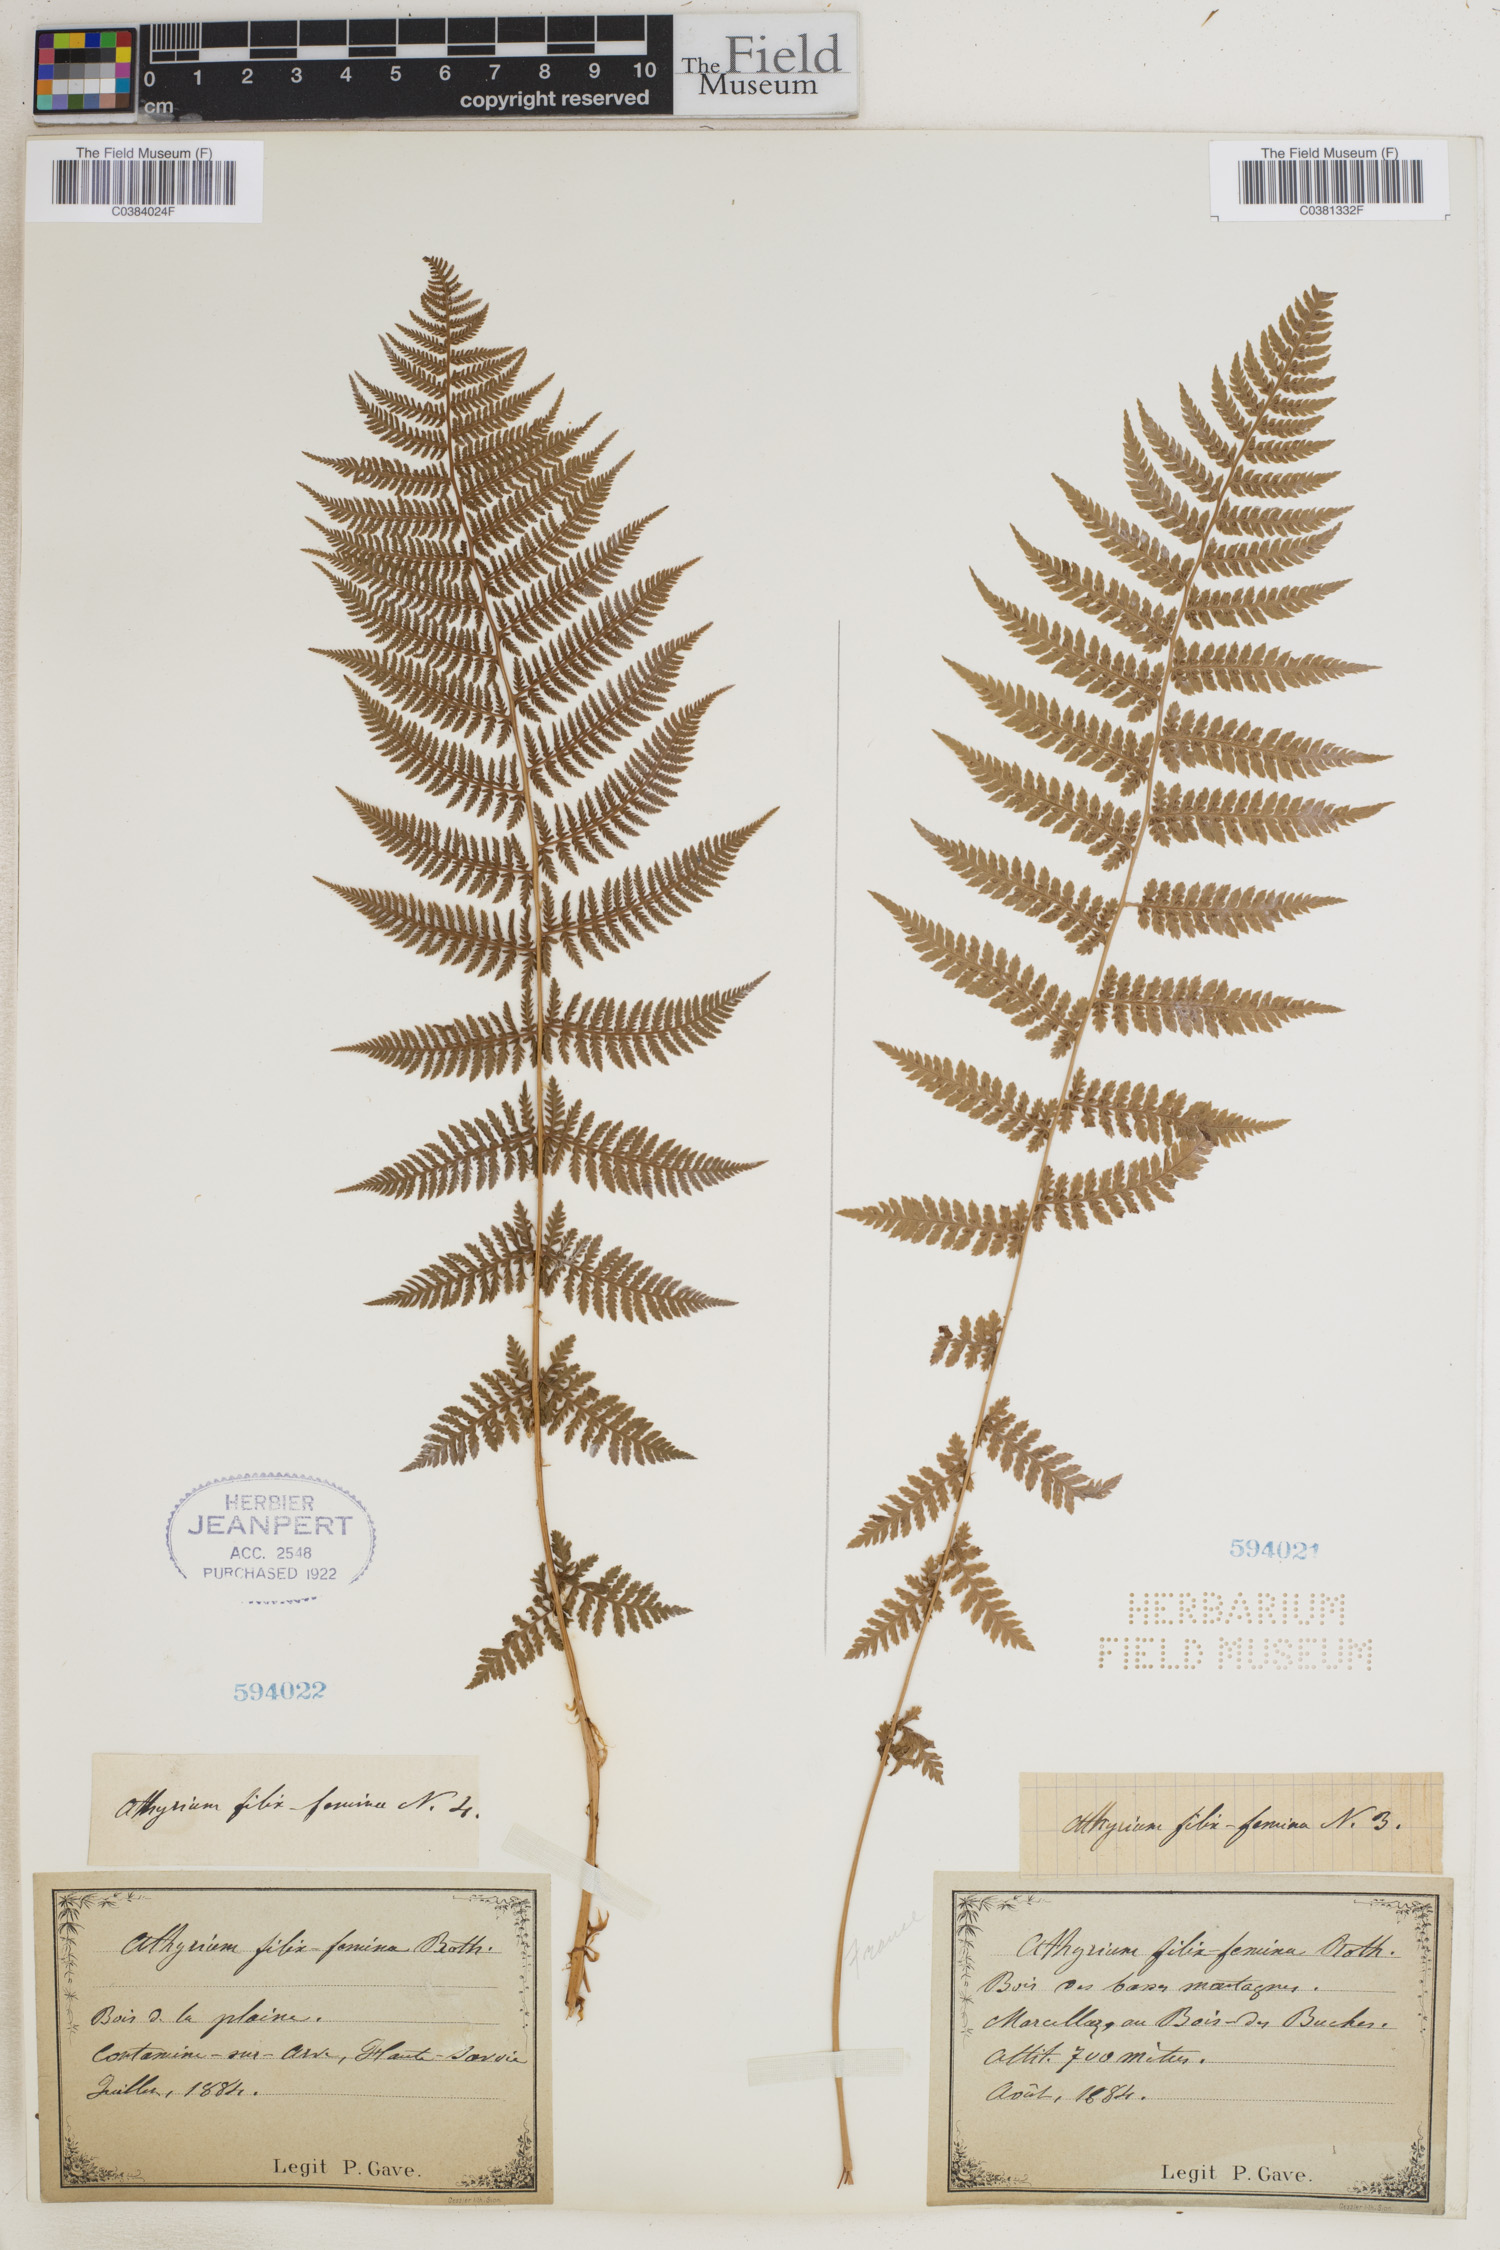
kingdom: Plantae
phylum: Tracheophyta
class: Polypodiopsida
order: Polypodiales
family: Athyriaceae
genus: Athyrium
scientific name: Athyrium filix-femina
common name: Lady fern
